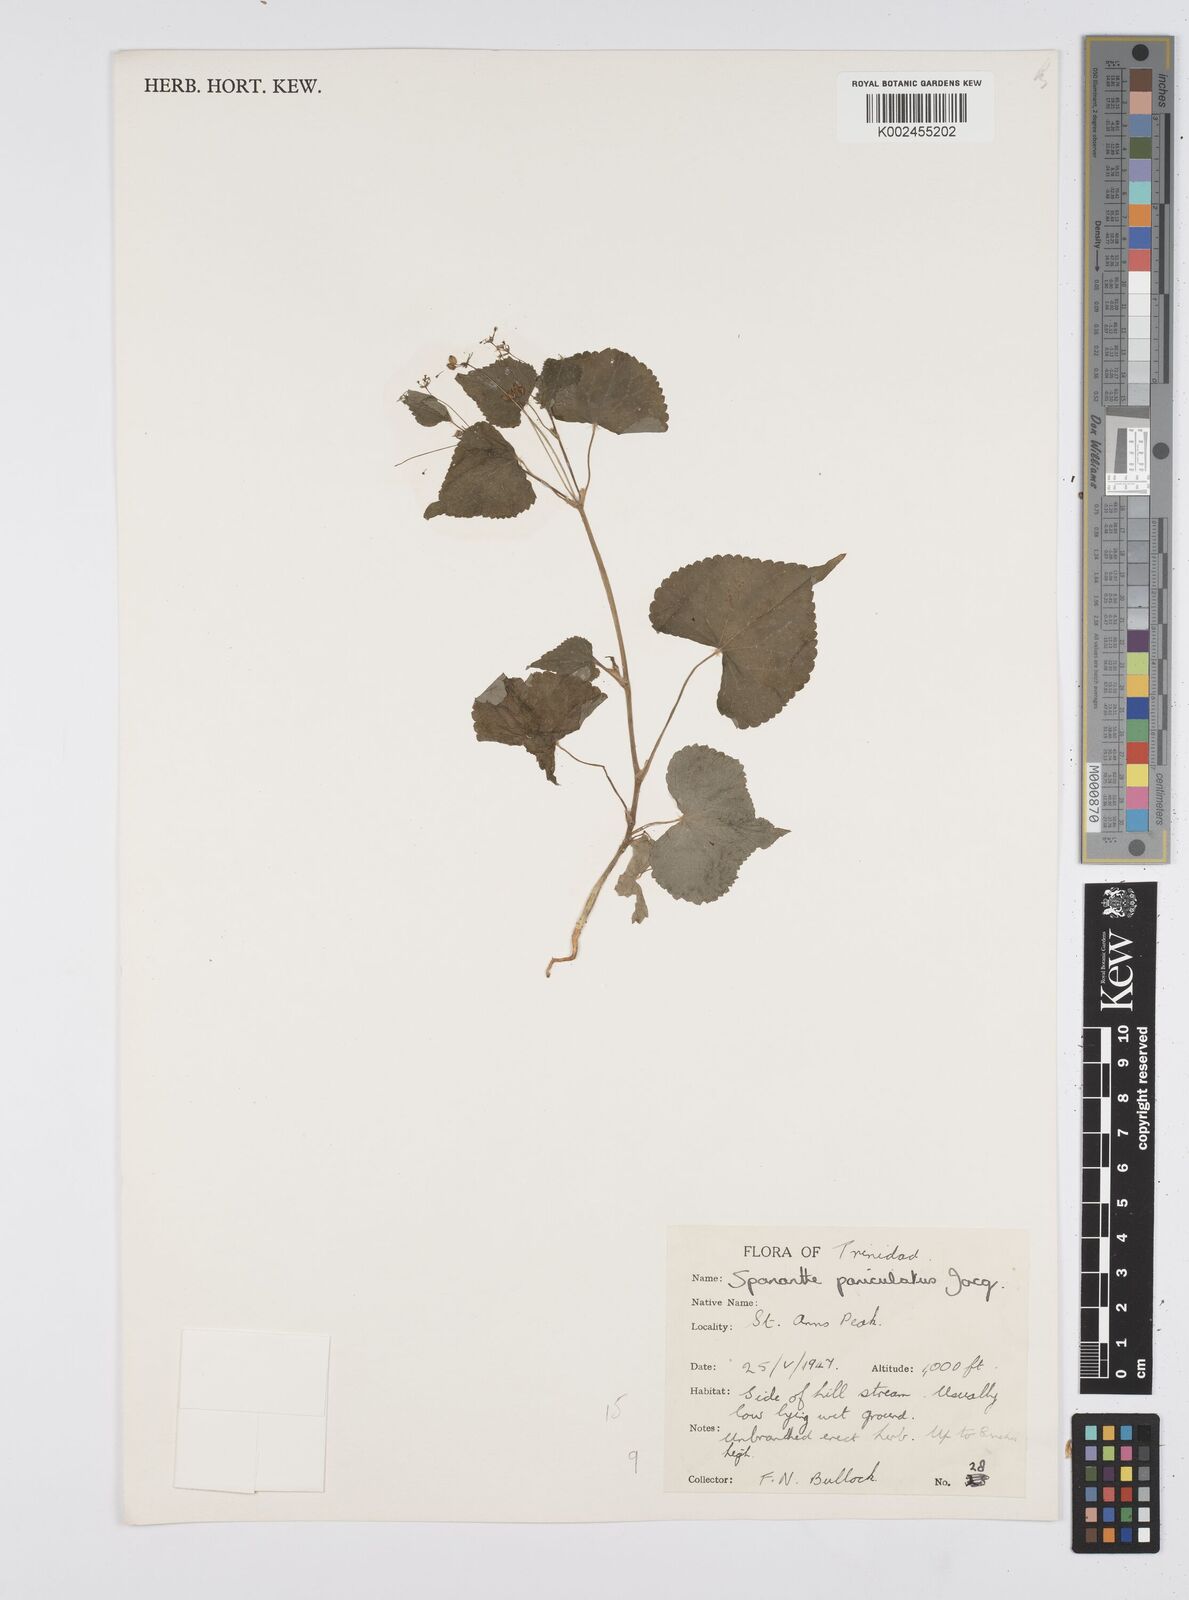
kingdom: Plantae
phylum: Tracheophyta
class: Magnoliopsida
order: Apiales
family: Apiaceae
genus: Azorella
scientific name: Azorella
